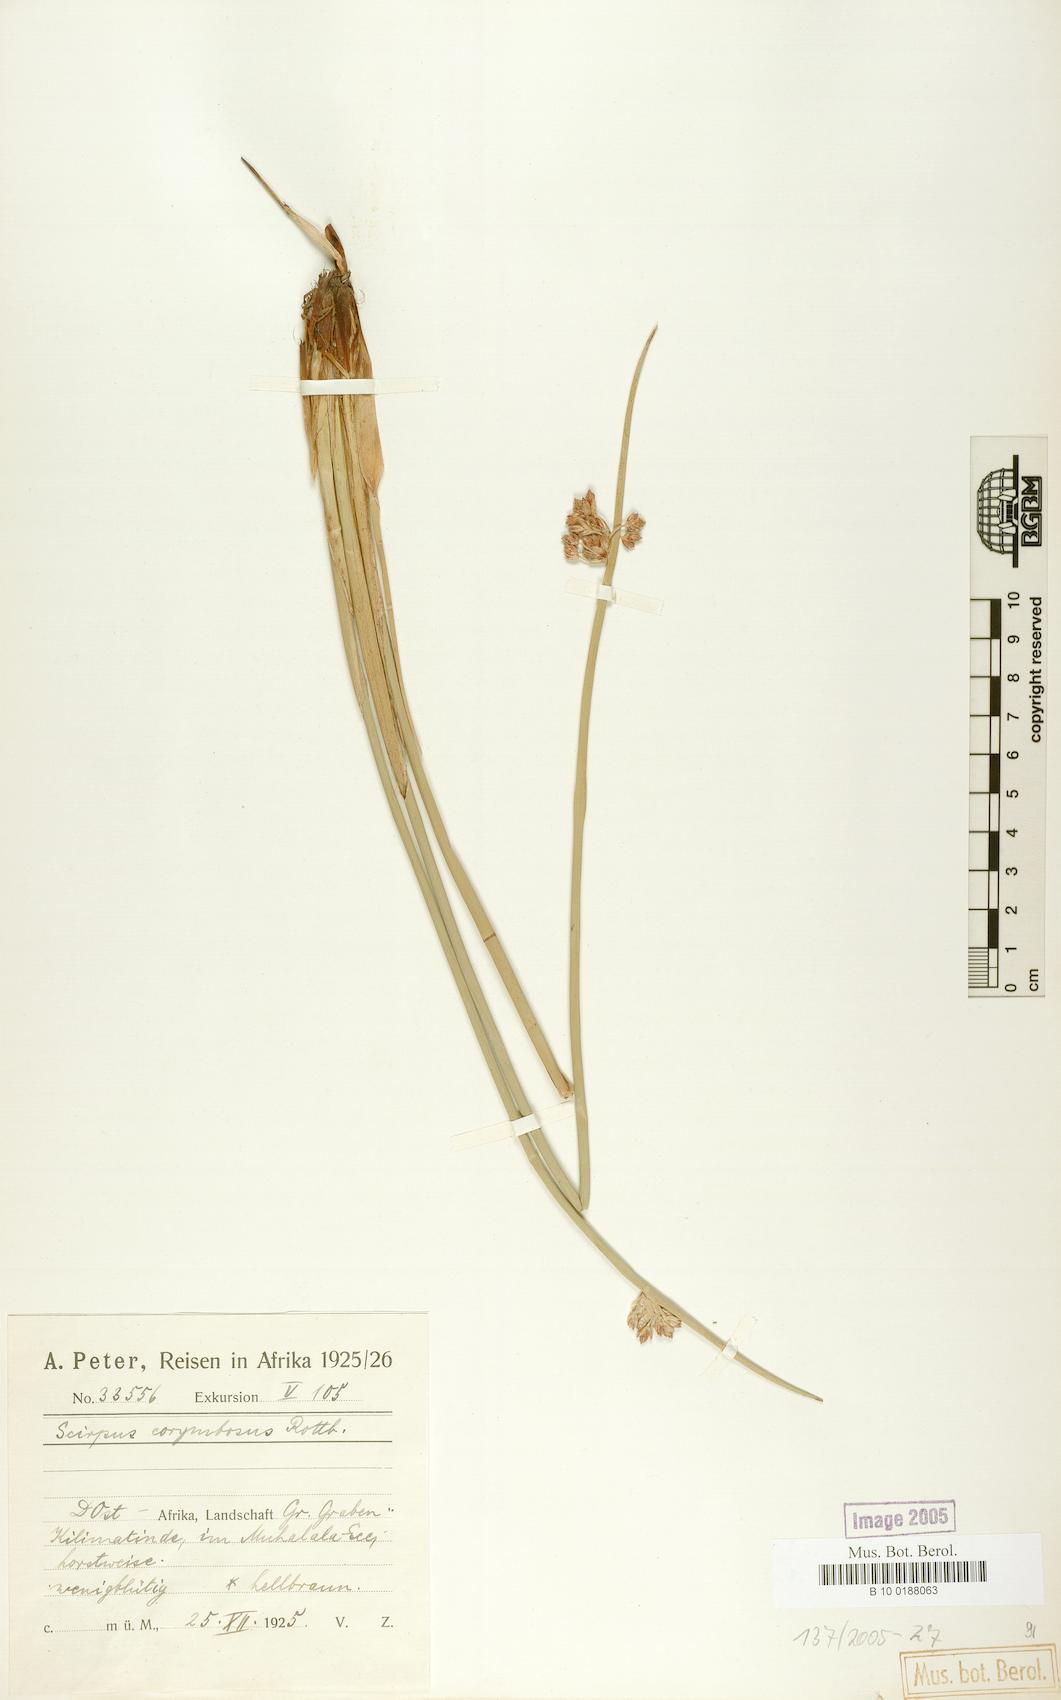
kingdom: Plantae
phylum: Tracheophyta
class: Liliopsida
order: Poales
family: Cyperaceae
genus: Schoenoplectiella
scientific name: Schoenoplectiella corymbosa
